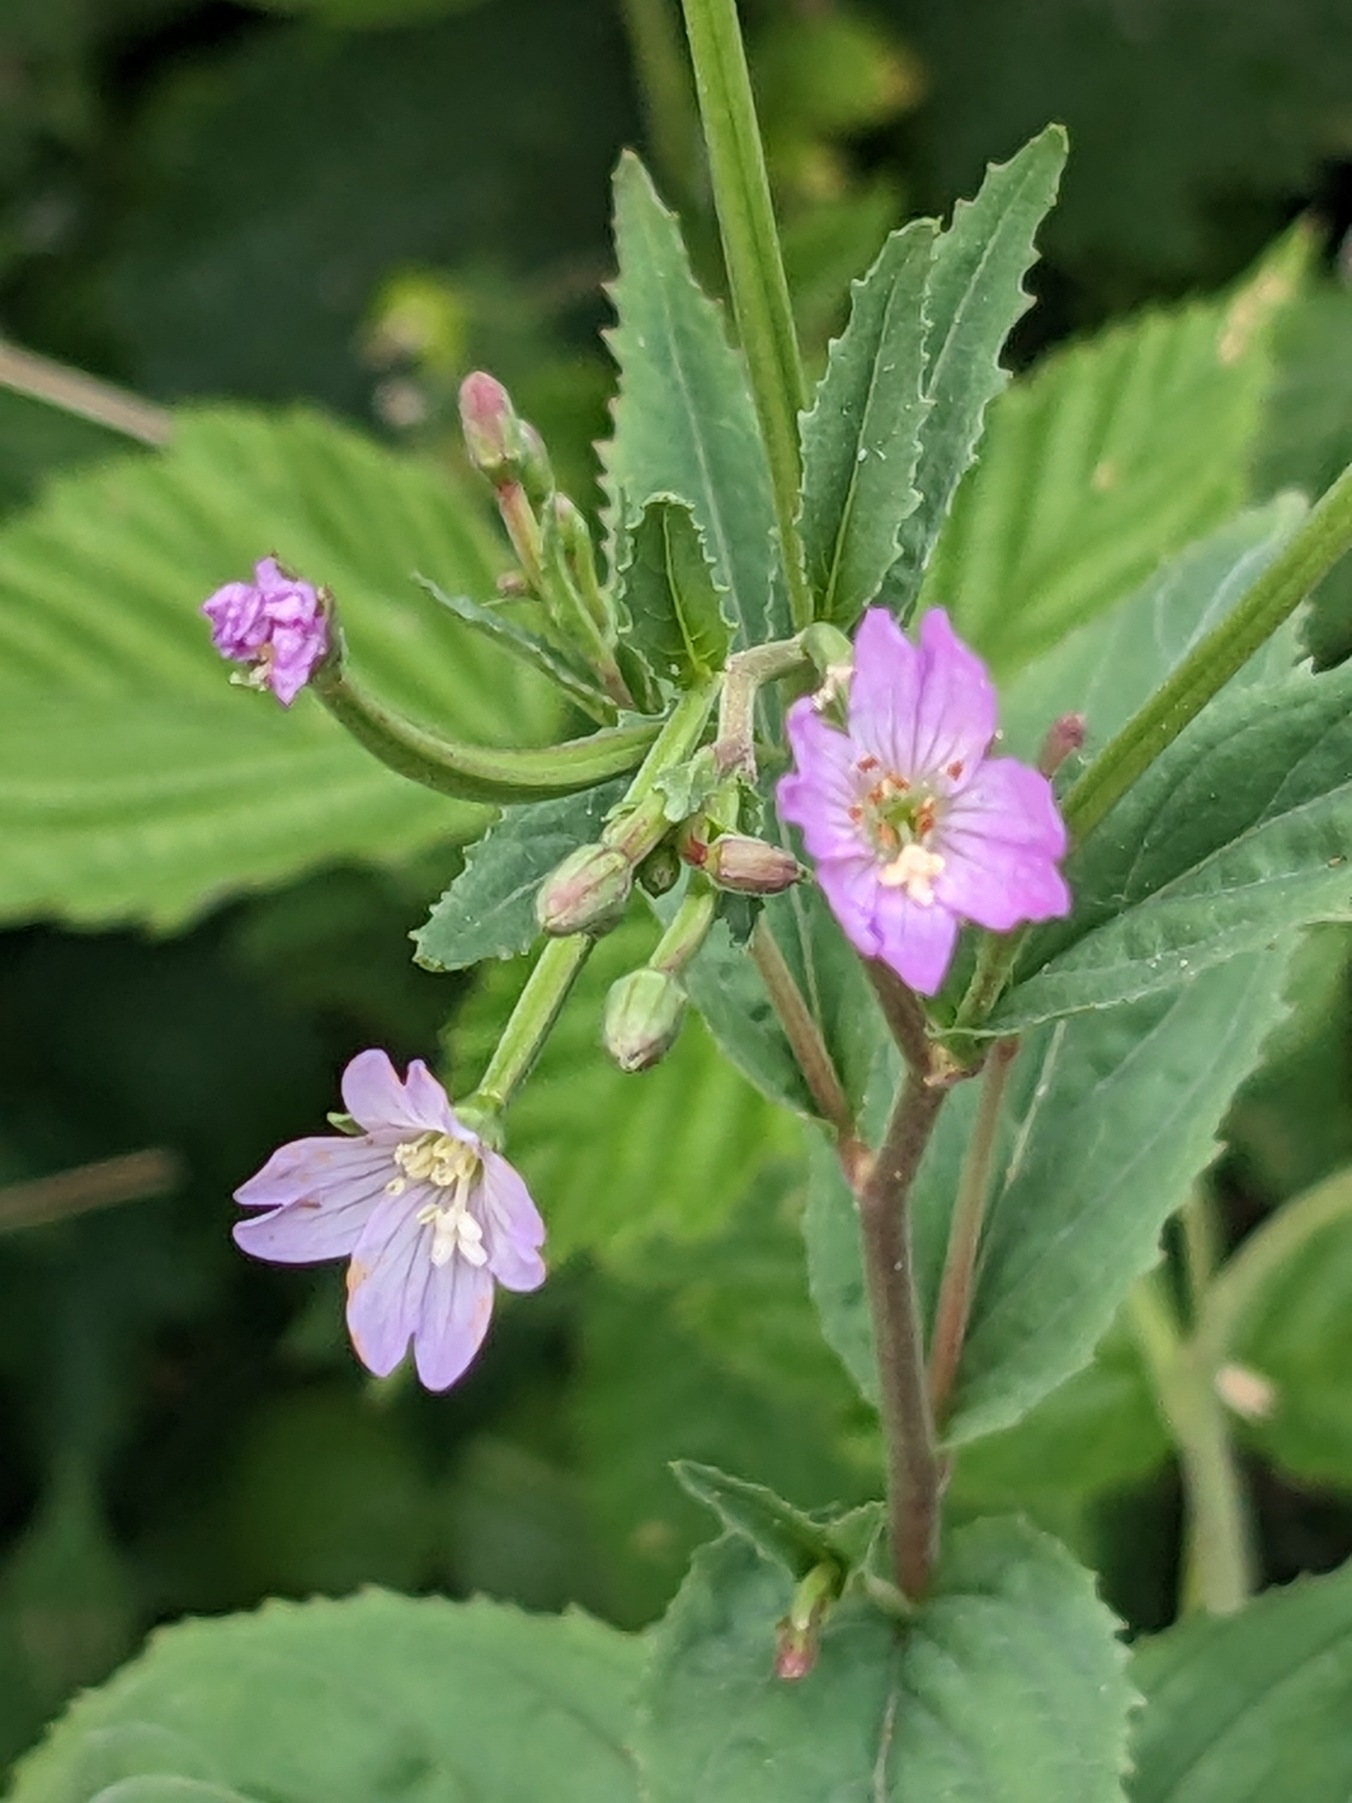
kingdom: Plantae
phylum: Tracheophyta
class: Magnoliopsida
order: Myrtales
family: Onagraceae
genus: Epilobium
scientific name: Epilobium montanum
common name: Glat dueurt
